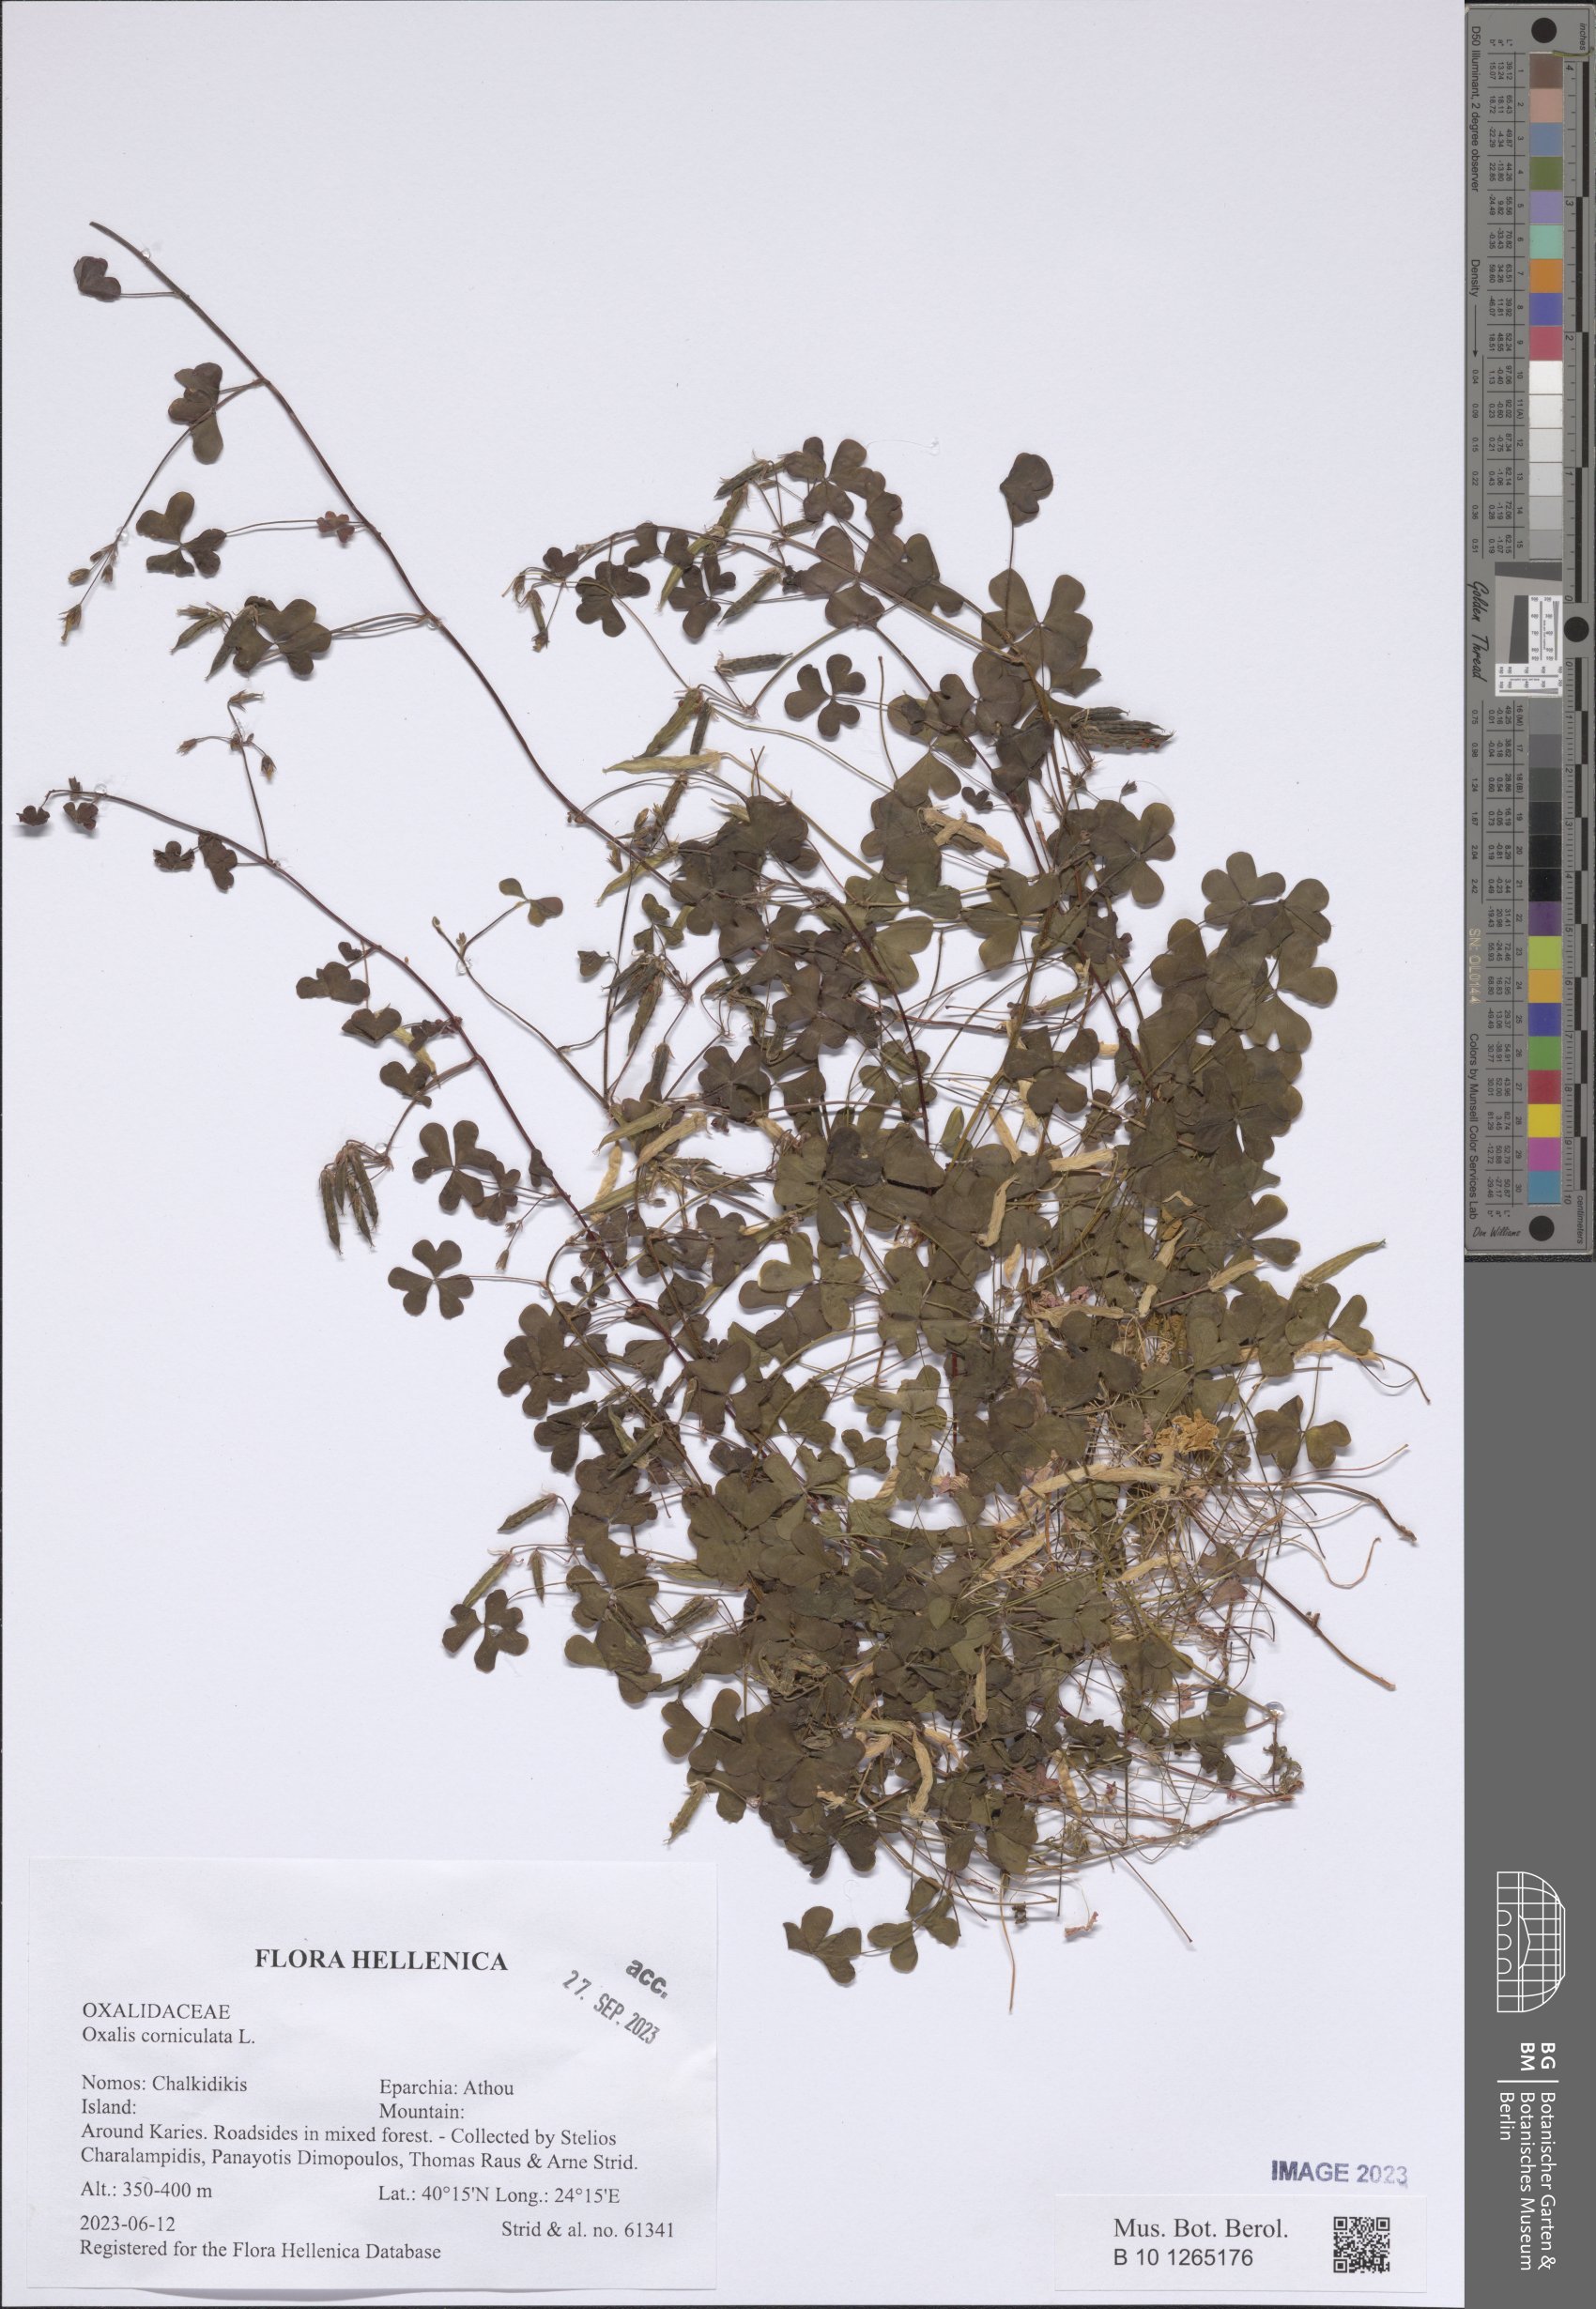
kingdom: Plantae
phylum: Tracheophyta
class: Magnoliopsida
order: Oxalidales
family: Oxalidaceae
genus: Oxalis
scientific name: Oxalis corniculata
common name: Procumbent yellow-sorrel
